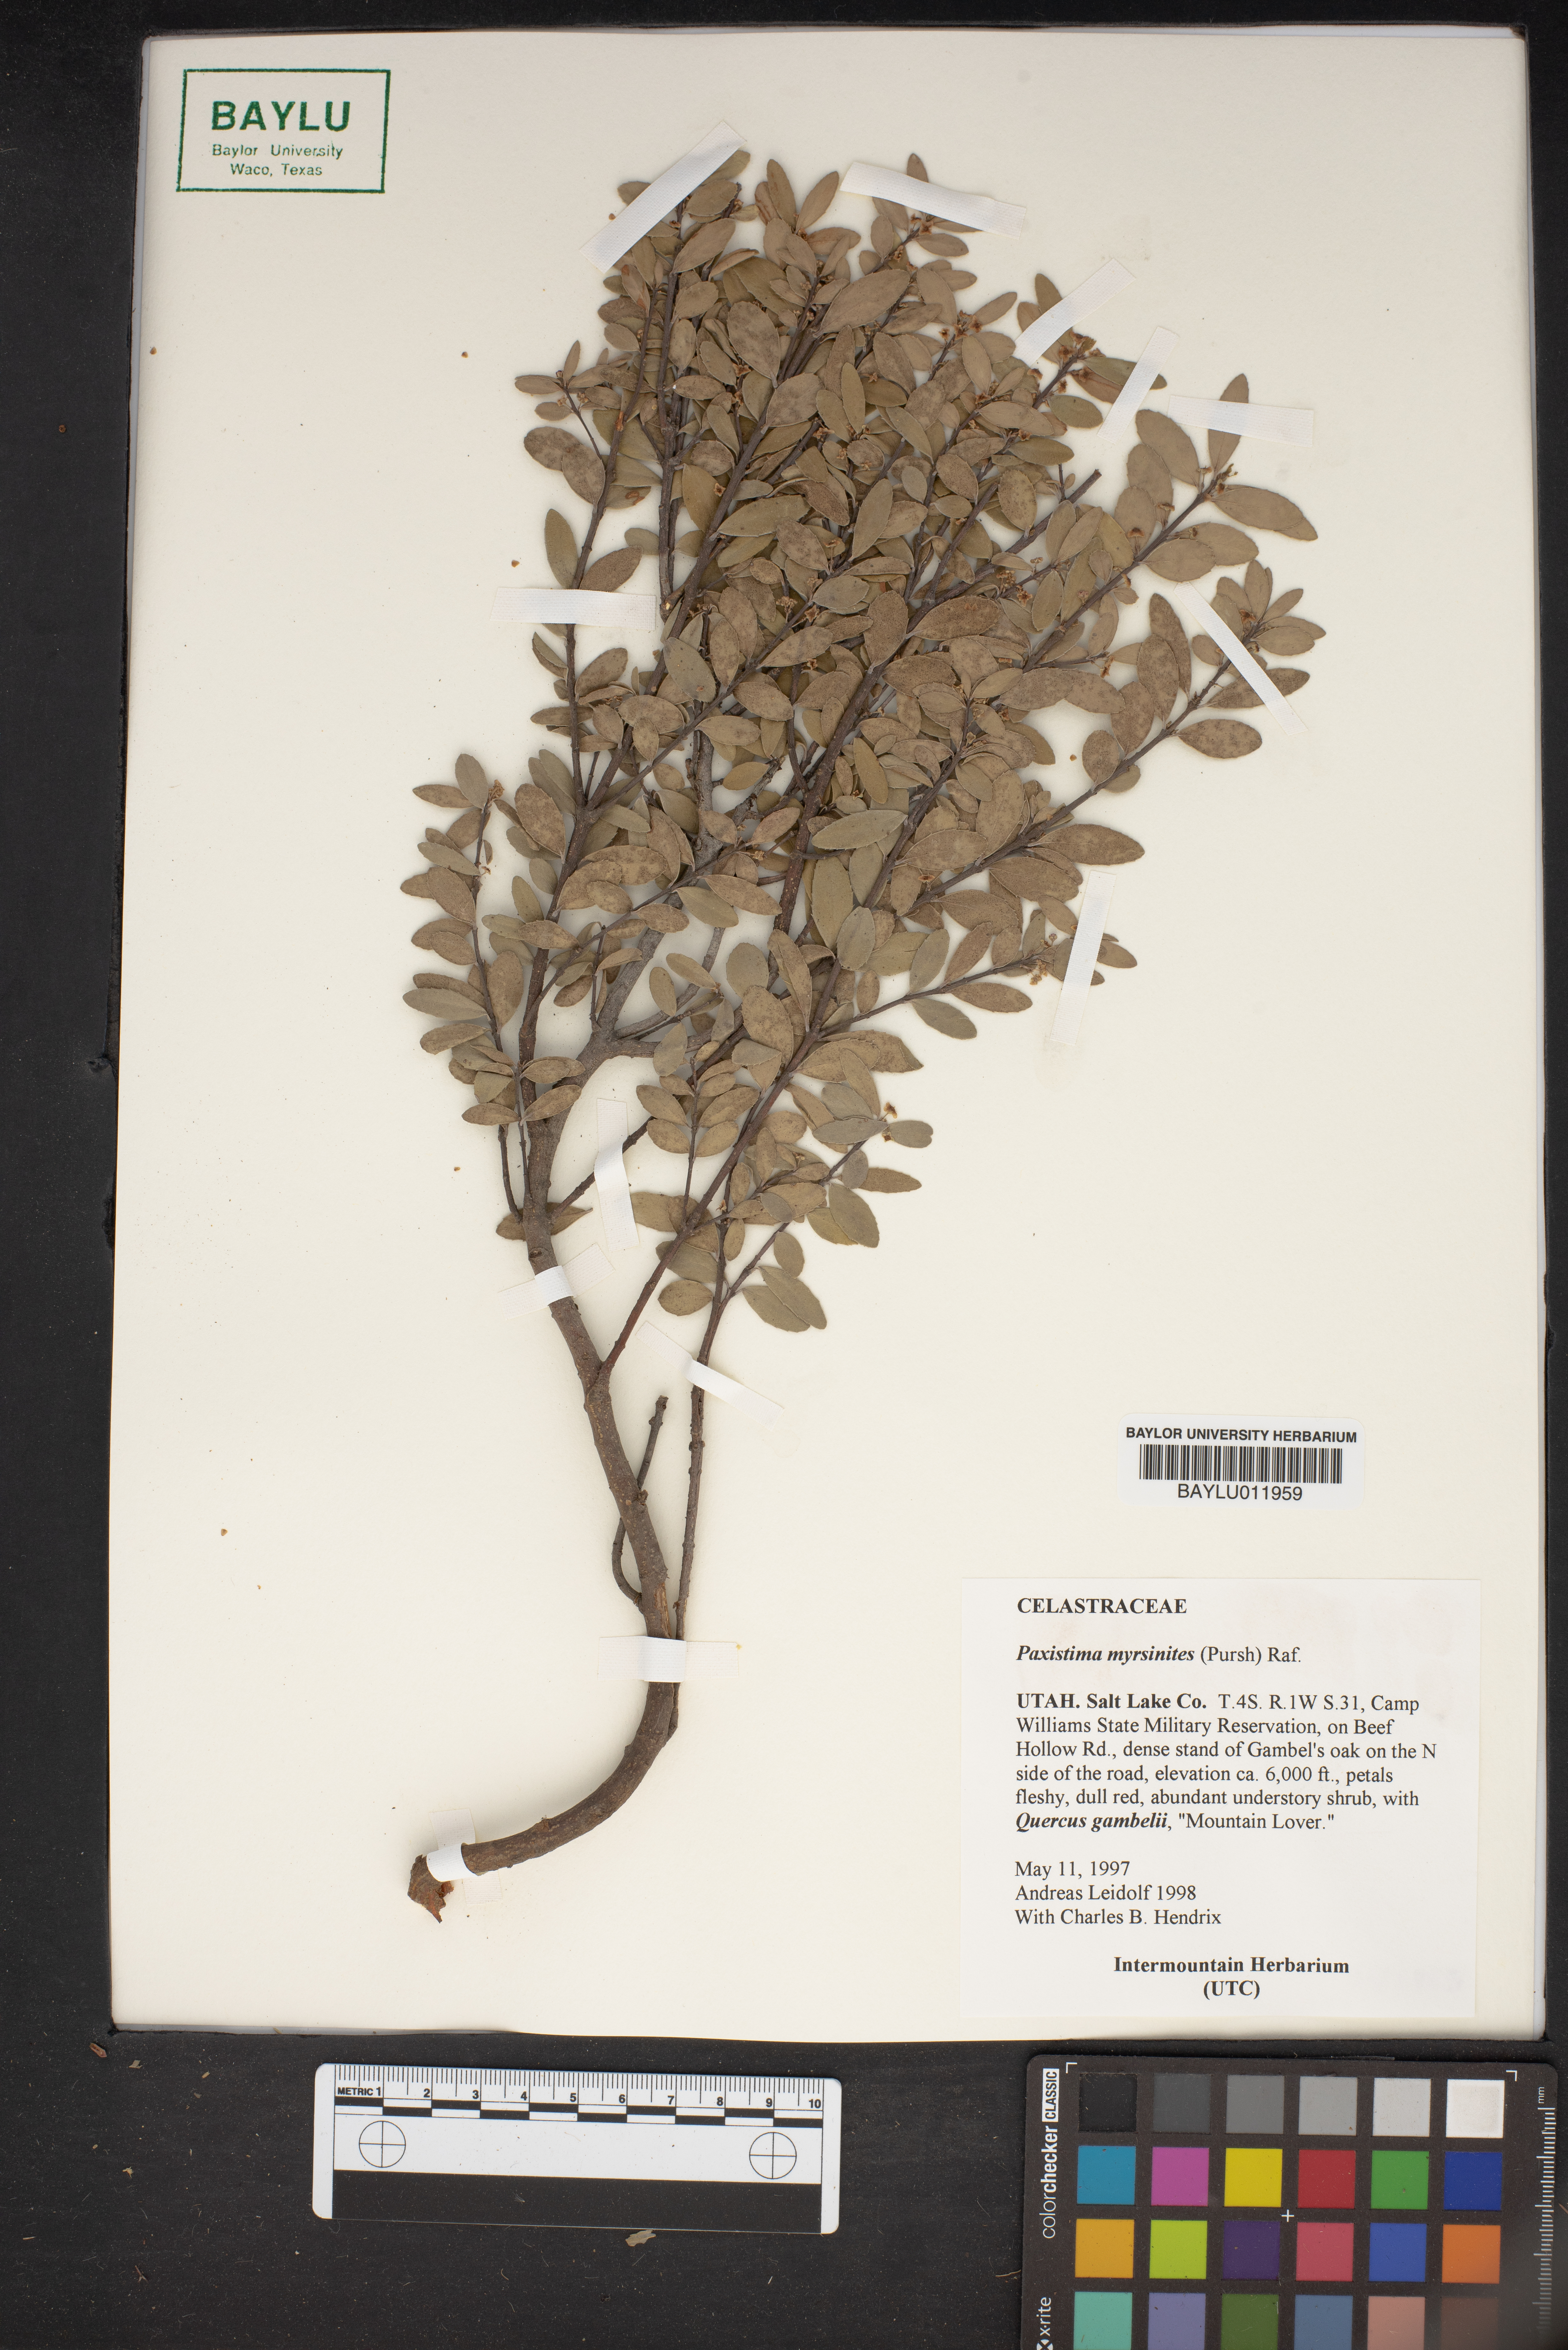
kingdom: Plantae
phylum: Tracheophyta
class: Magnoliopsida
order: Celastrales
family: Celastraceae
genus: Paxistima
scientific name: Paxistima myrsinites
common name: Mountain-lover
